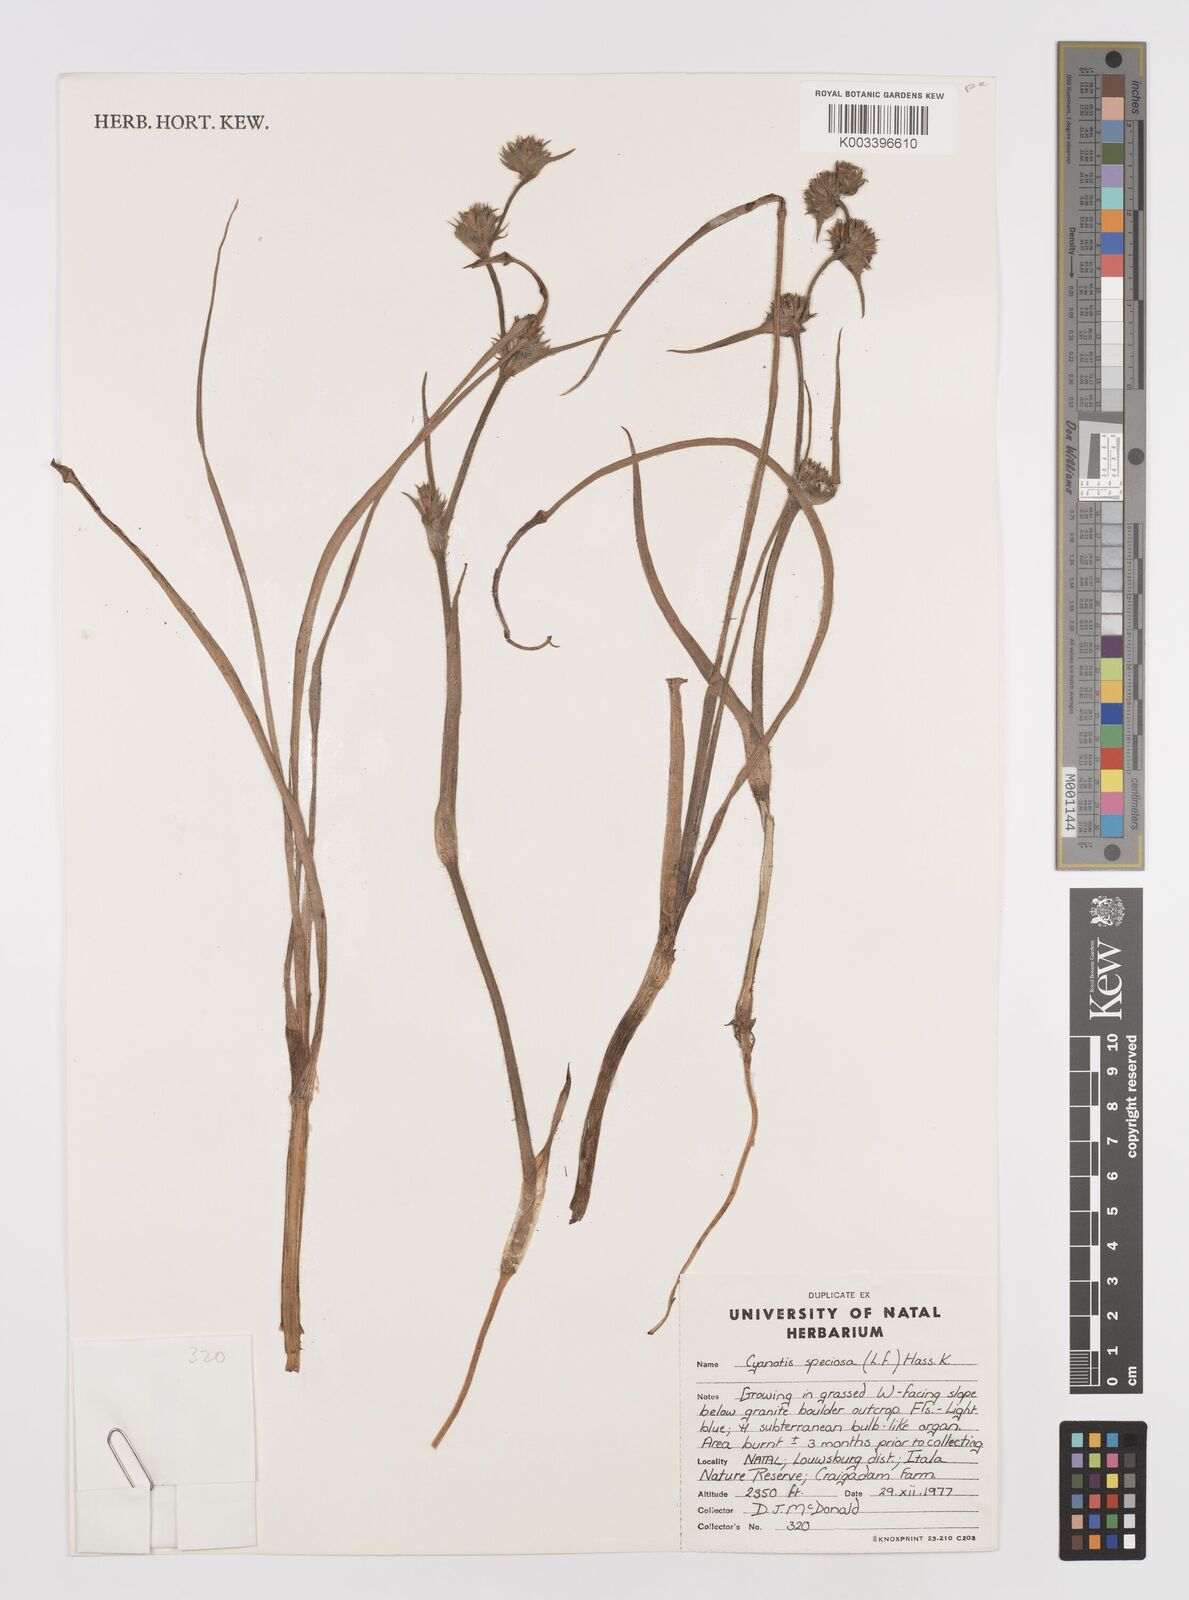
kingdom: Plantae
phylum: Tracheophyta
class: Liliopsida
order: Commelinales
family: Commelinaceae
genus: Cyanotis
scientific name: Cyanotis speciosa
